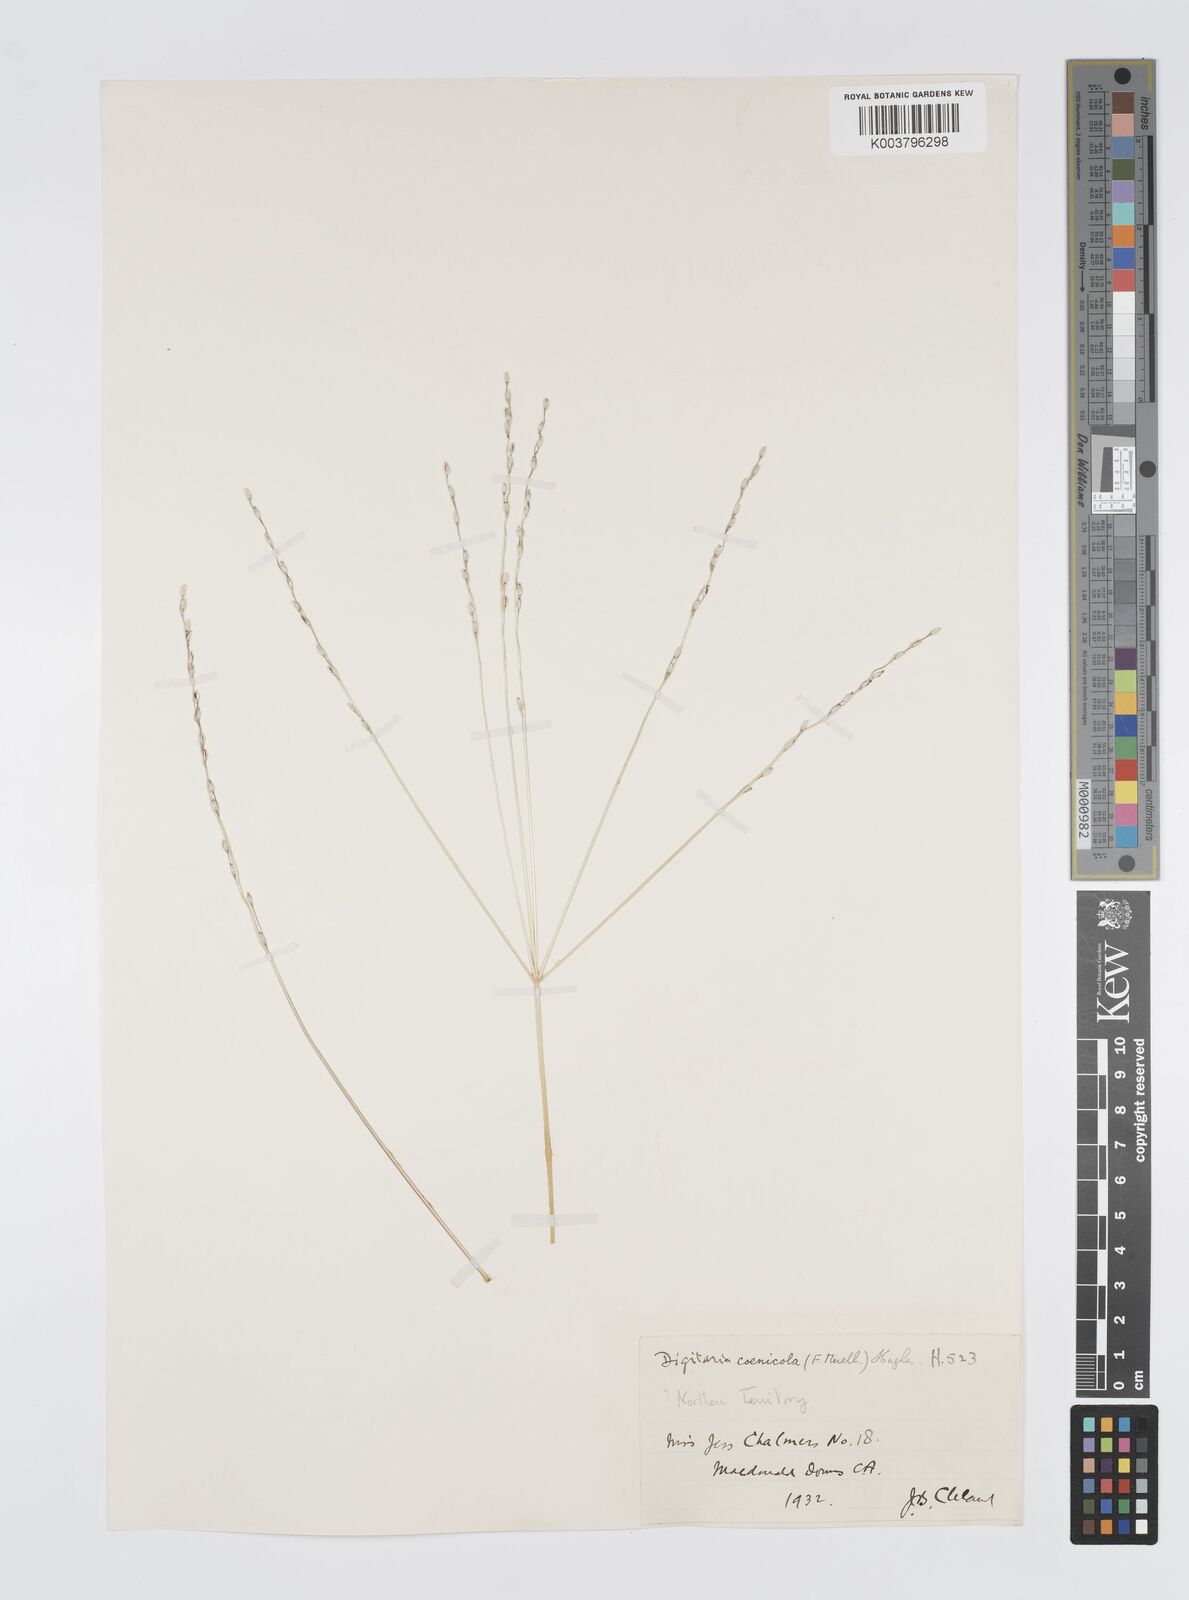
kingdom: Plantae
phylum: Tracheophyta
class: Liliopsida
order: Poales
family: Poaceae
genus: Digitaria
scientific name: Digitaria coenicola
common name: Kanta grass
